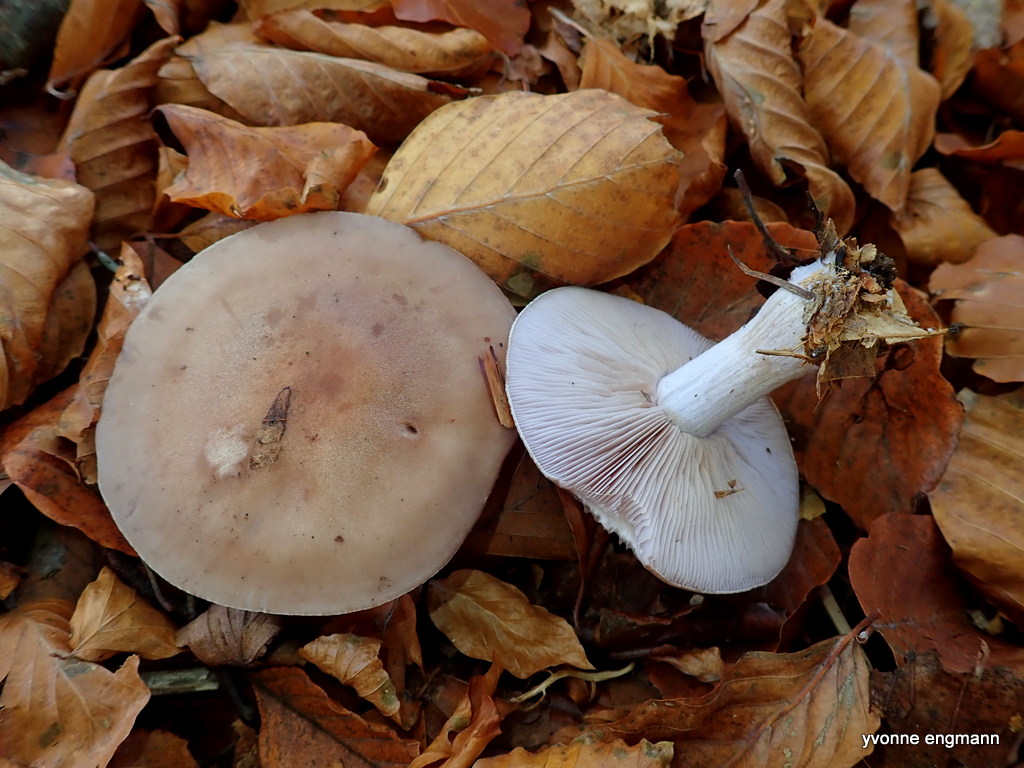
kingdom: Fungi
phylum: Basidiomycota
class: Agaricomycetes
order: Agaricales
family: Tricholomataceae
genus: Lepista
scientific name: Lepista nuda
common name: violet hekseringshat
